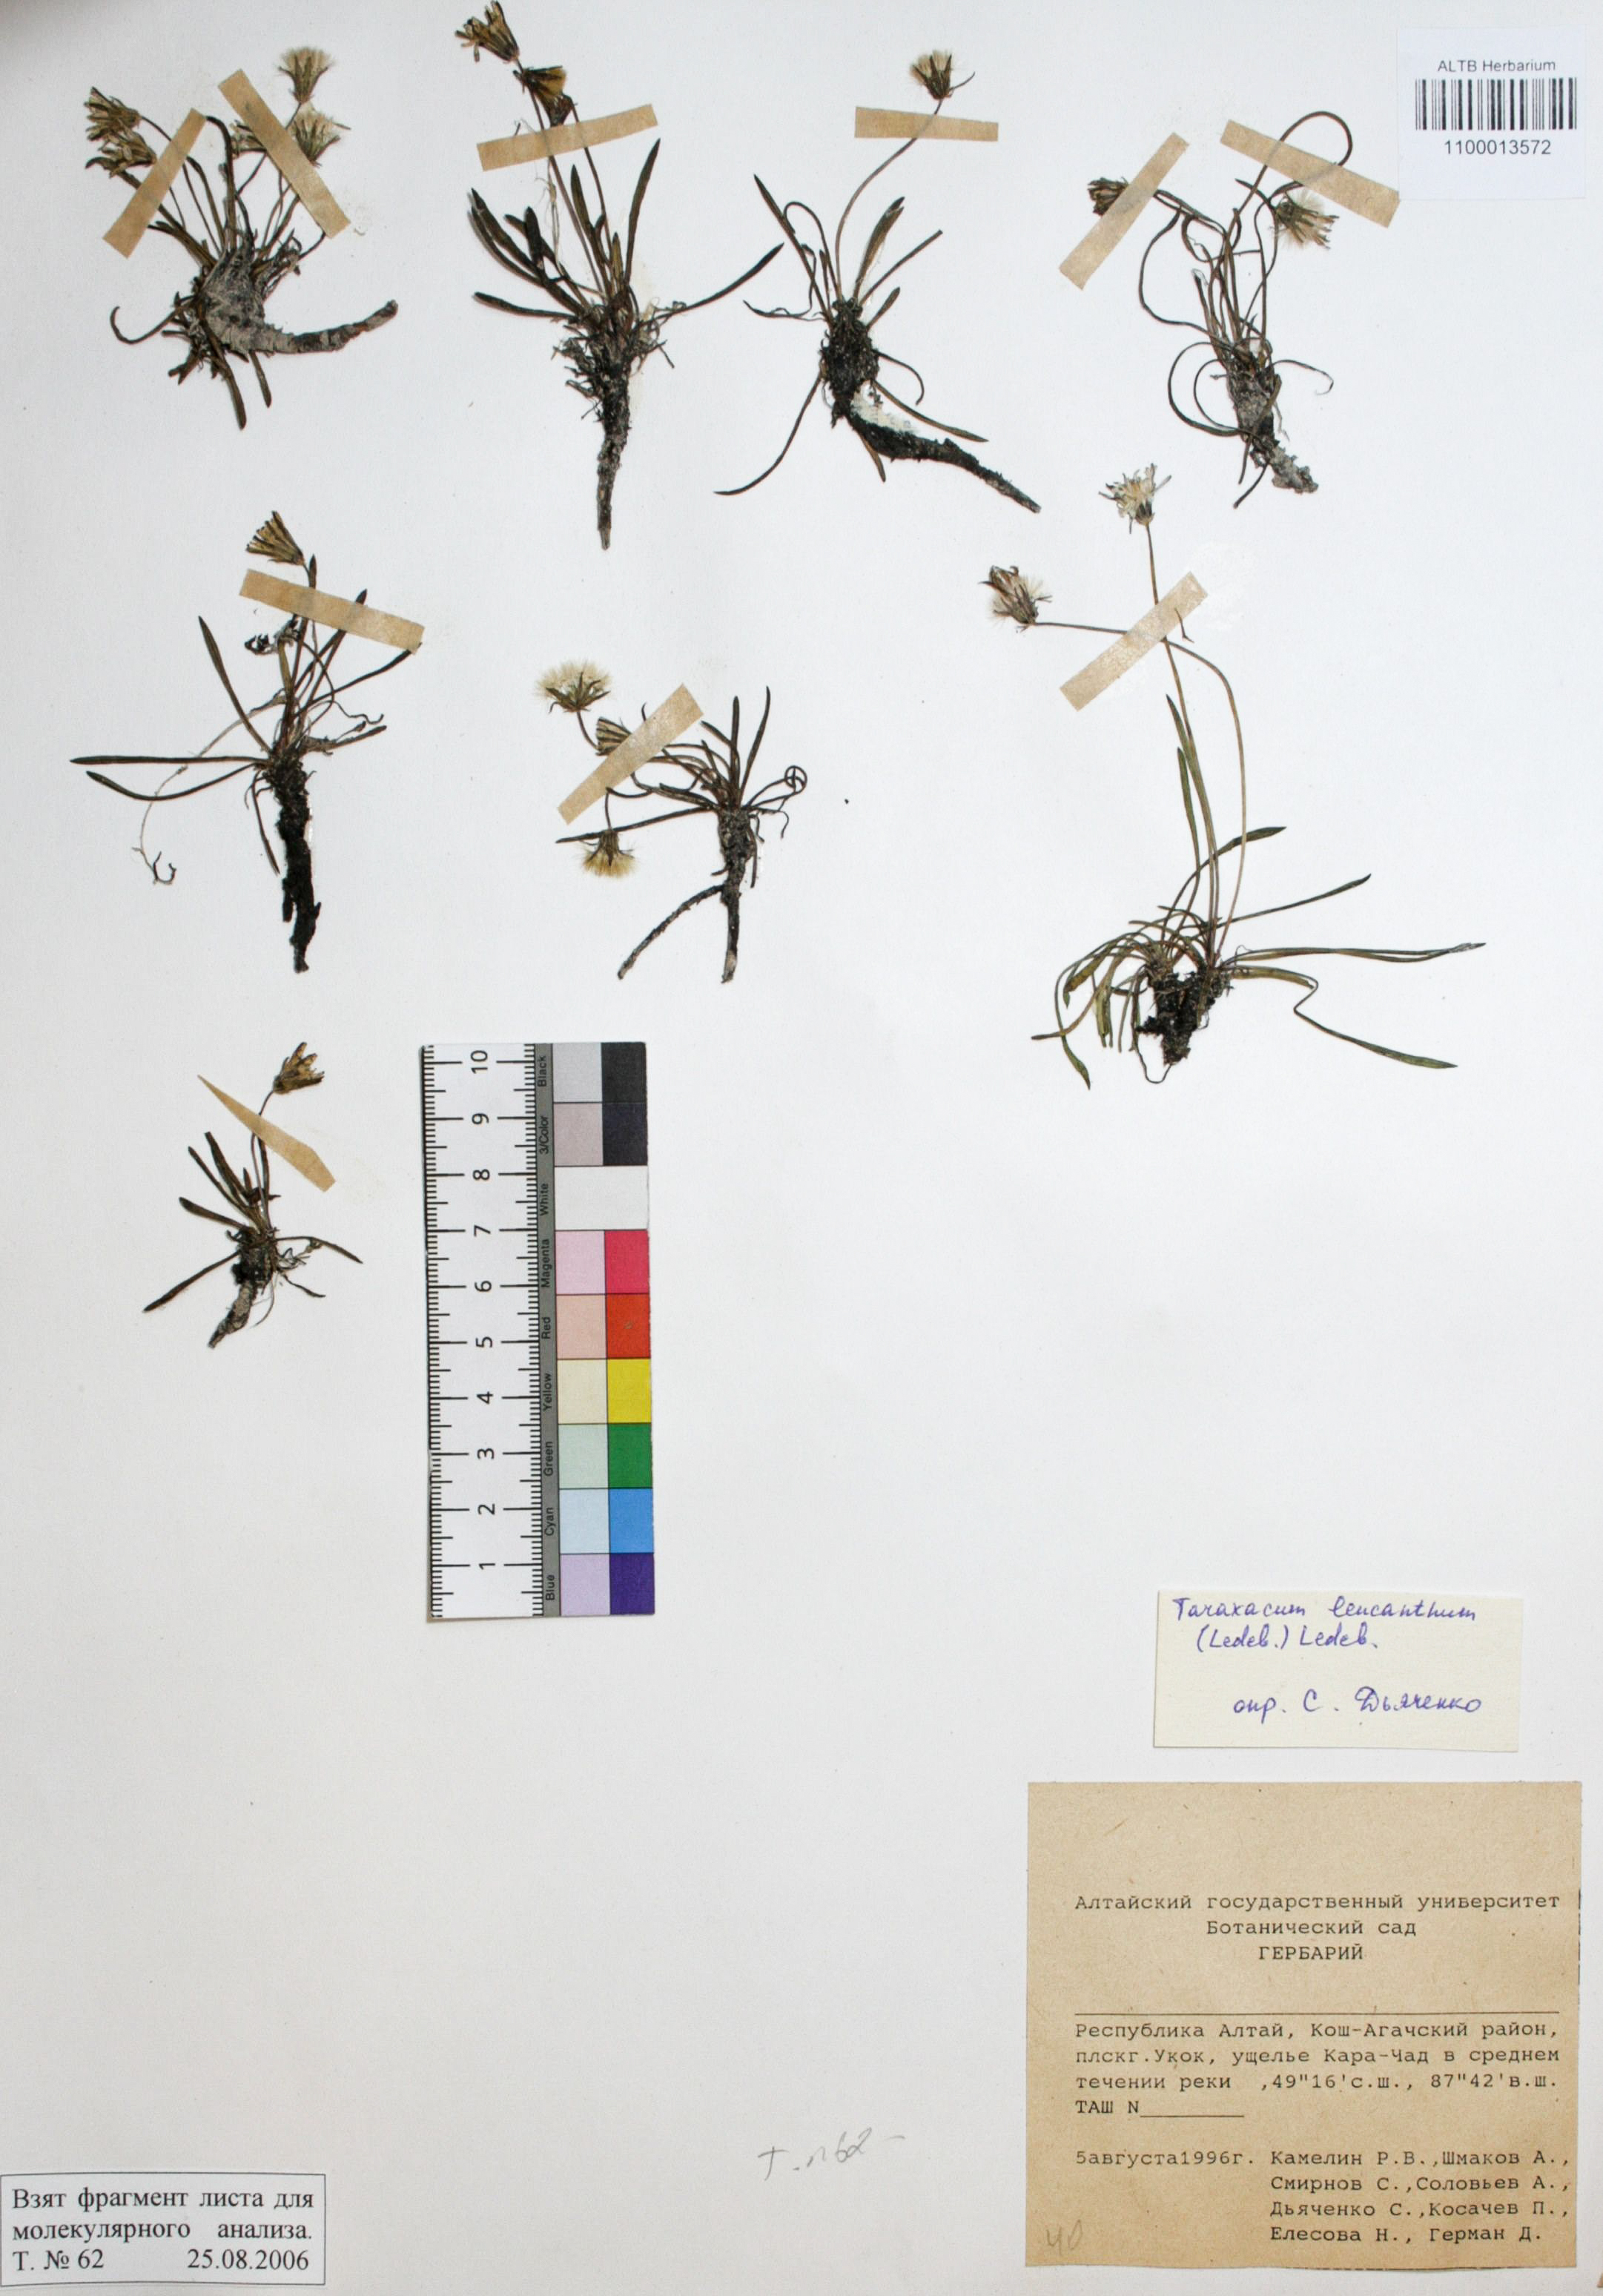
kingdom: Plantae
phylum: Tracheophyta
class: Magnoliopsida
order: Asterales
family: Asteraceae
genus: Taraxacum
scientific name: Taraxacum leucanthum
